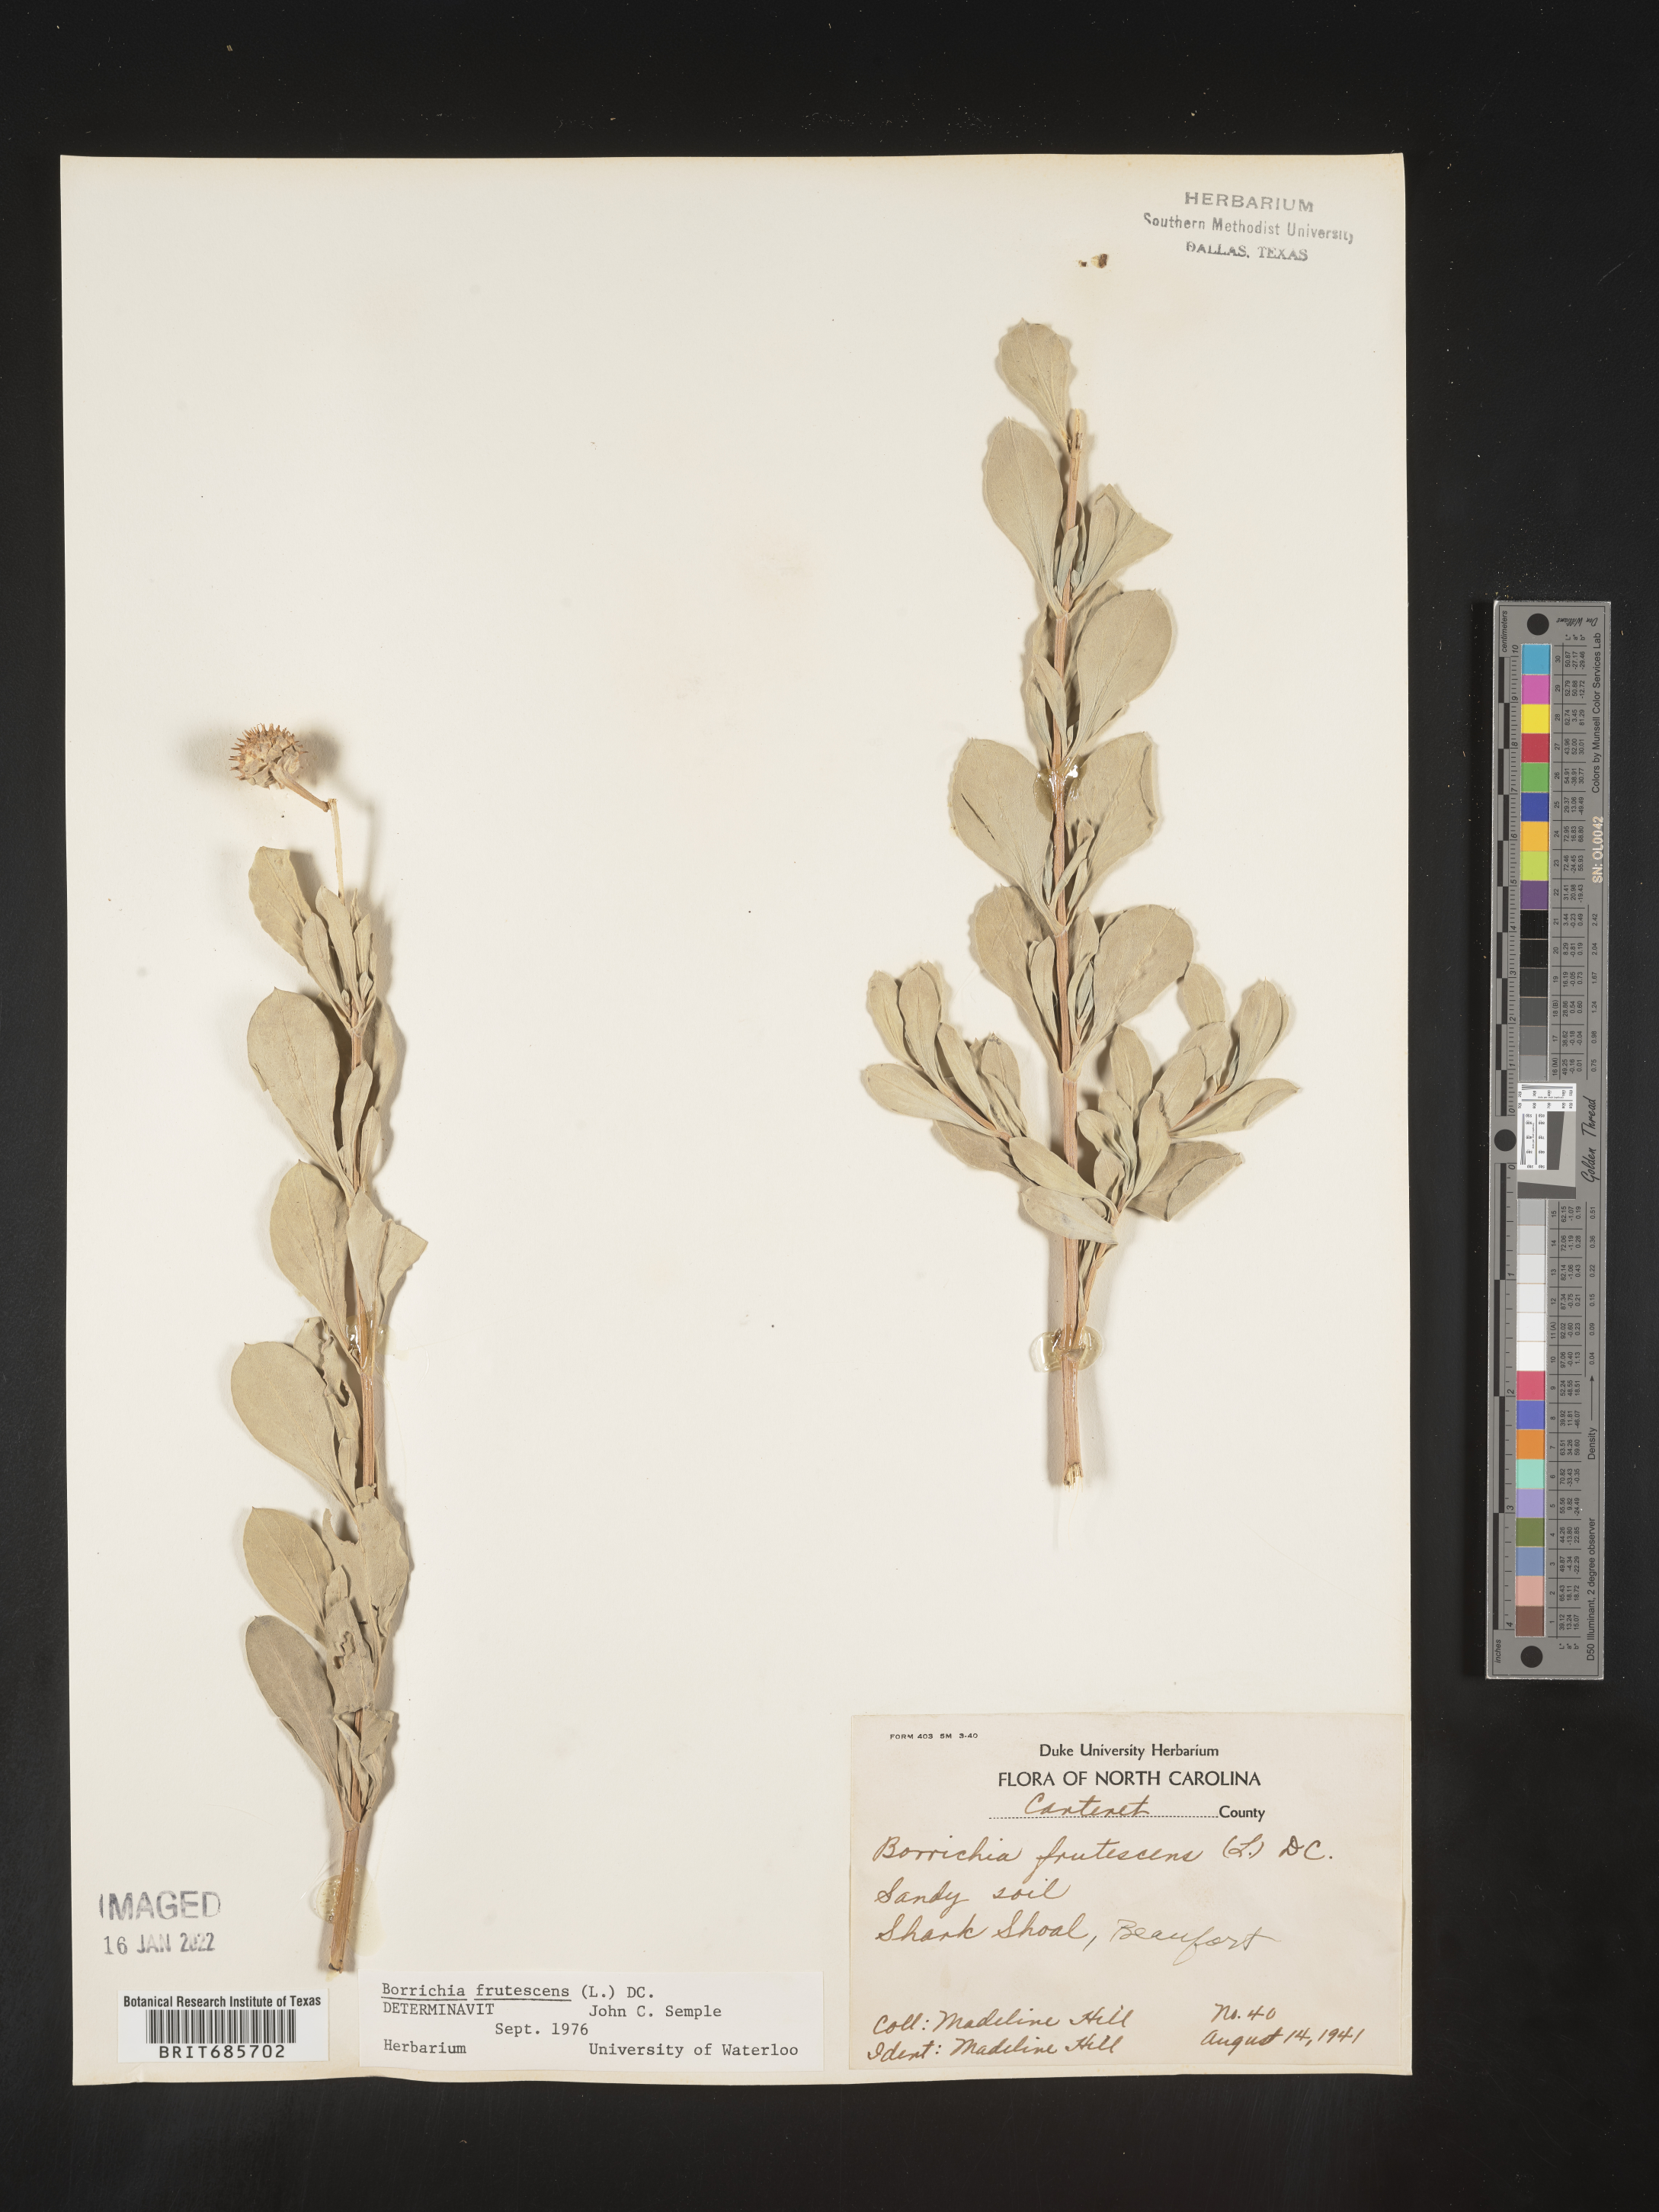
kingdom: Plantae
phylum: Tracheophyta
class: Magnoliopsida
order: Asterales
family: Asteraceae
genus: Borrichia
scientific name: Borrichia frutescens
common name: Sea oxeye
